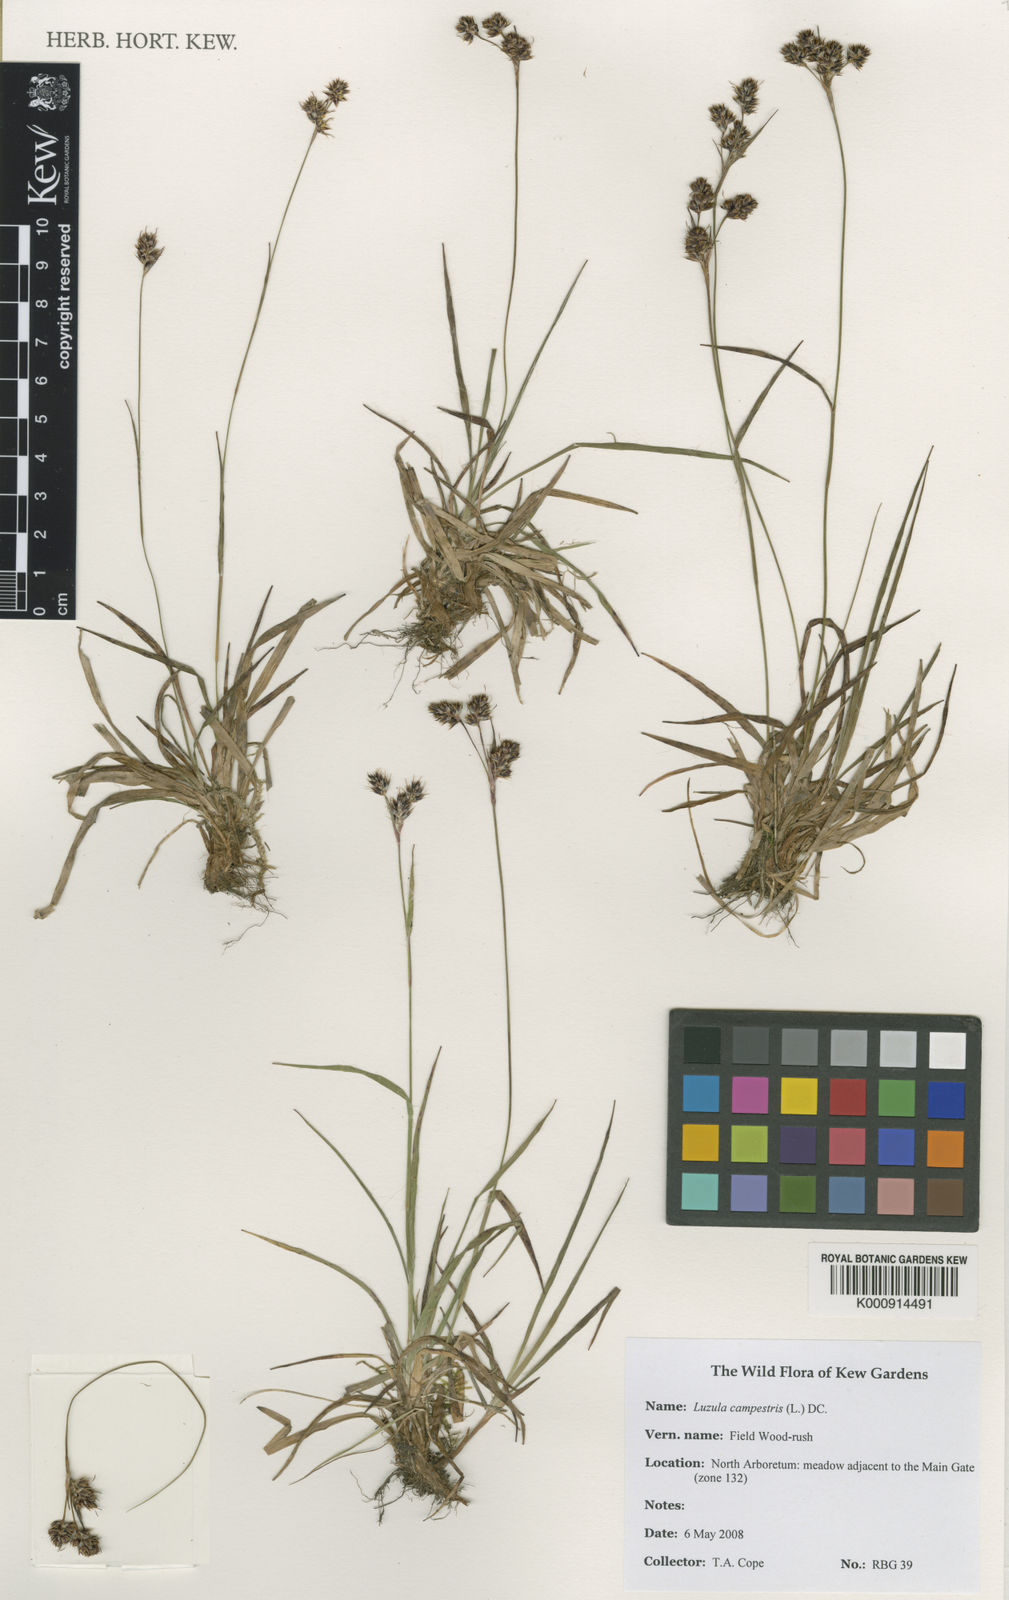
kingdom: Plantae
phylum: Tracheophyta
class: Liliopsida
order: Poales
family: Juncaceae
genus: Luzula
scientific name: Luzula campestris
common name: Field wood-rush
